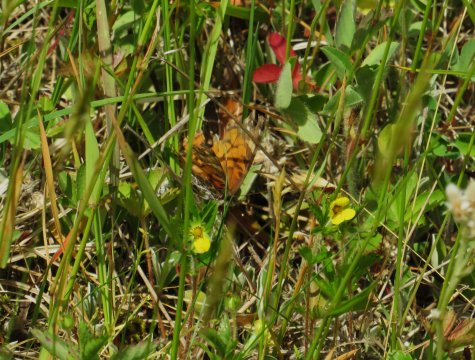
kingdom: Animalia
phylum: Arthropoda
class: Insecta
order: Lepidoptera
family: Nymphalidae
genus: Vanessa
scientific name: Vanessa virginiensis
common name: American Lady
